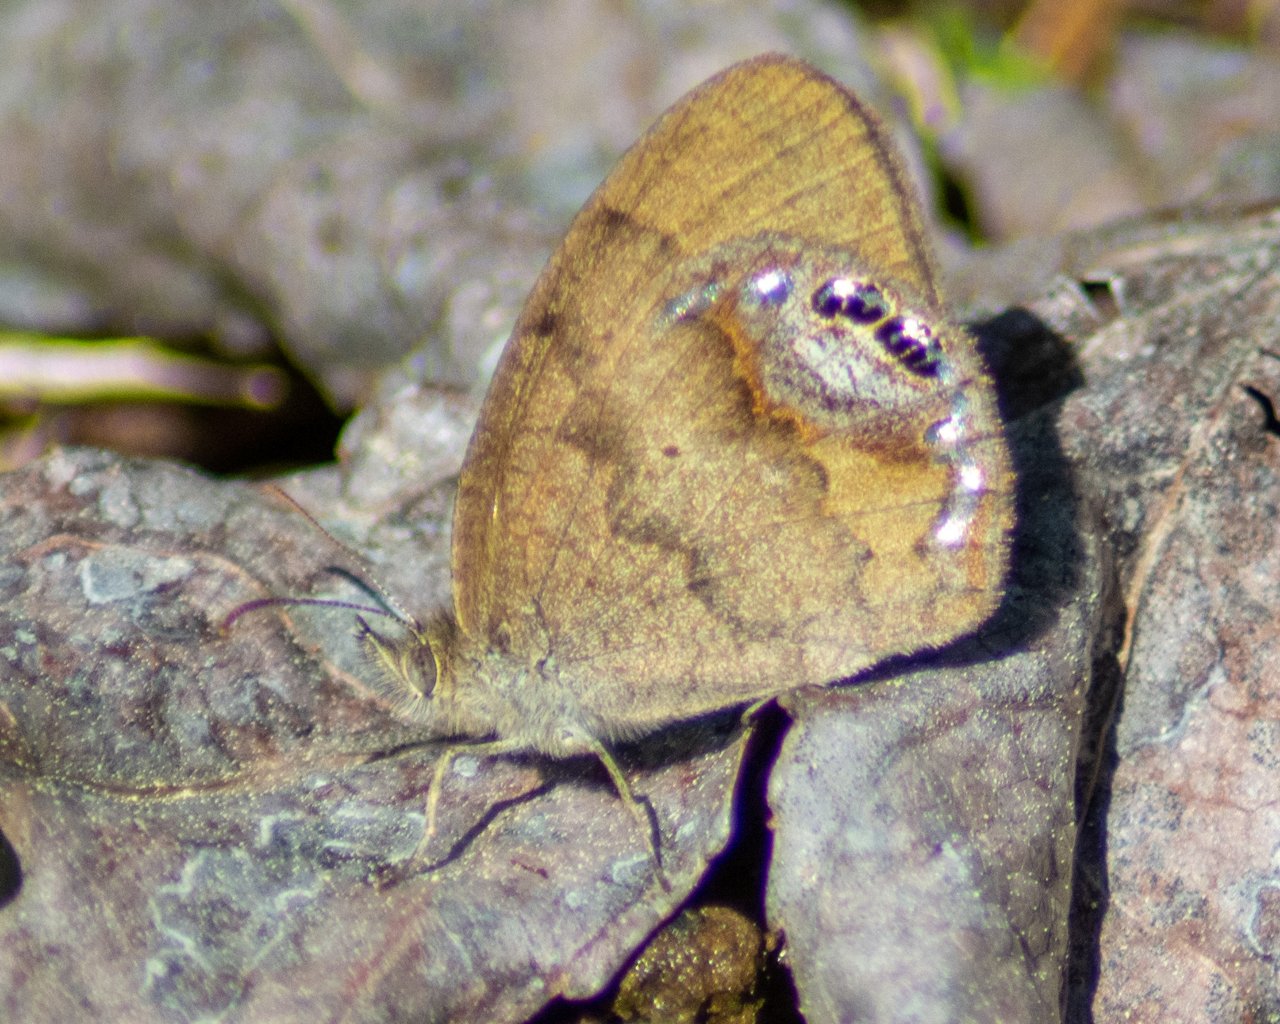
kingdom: Animalia
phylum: Arthropoda
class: Insecta
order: Lepidoptera
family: Nymphalidae
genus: Euptychia
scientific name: Euptychia cornelius
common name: Gemmed Satyr
